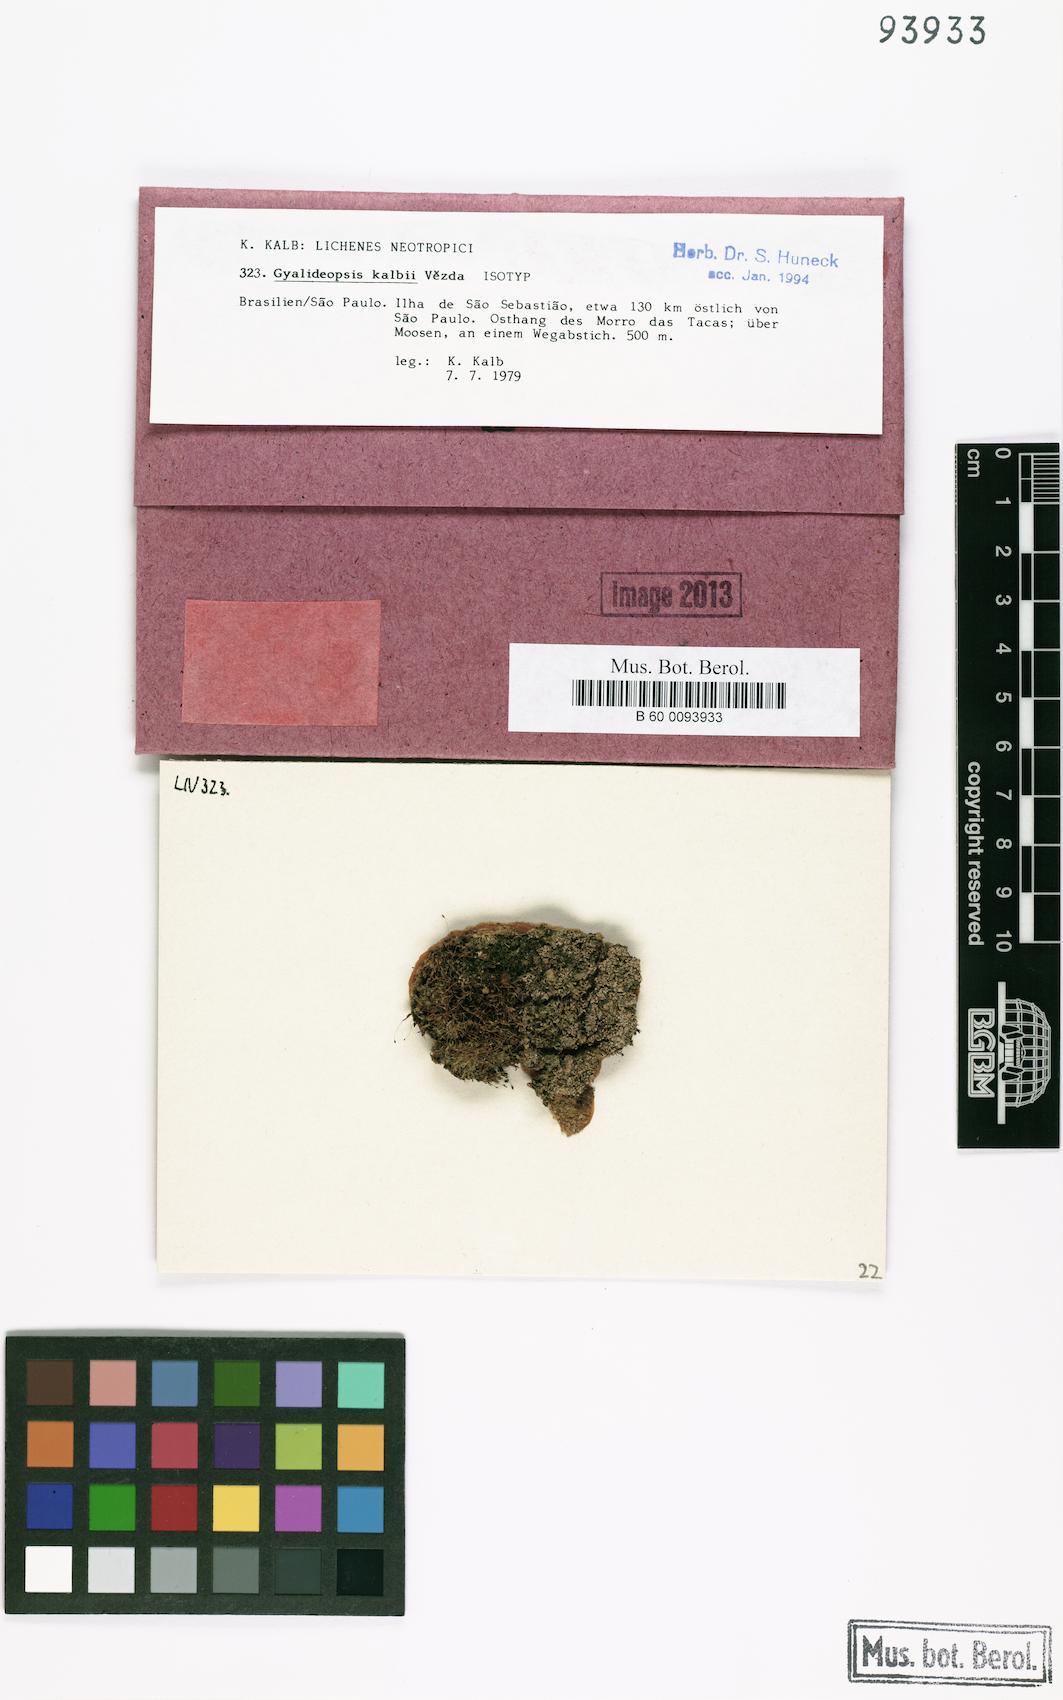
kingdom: Fungi
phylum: Ascomycota
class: Lecanoromycetes
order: Ostropales
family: Gomphillaceae
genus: Gyalideopsis
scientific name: Gyalideopsis kalbii
